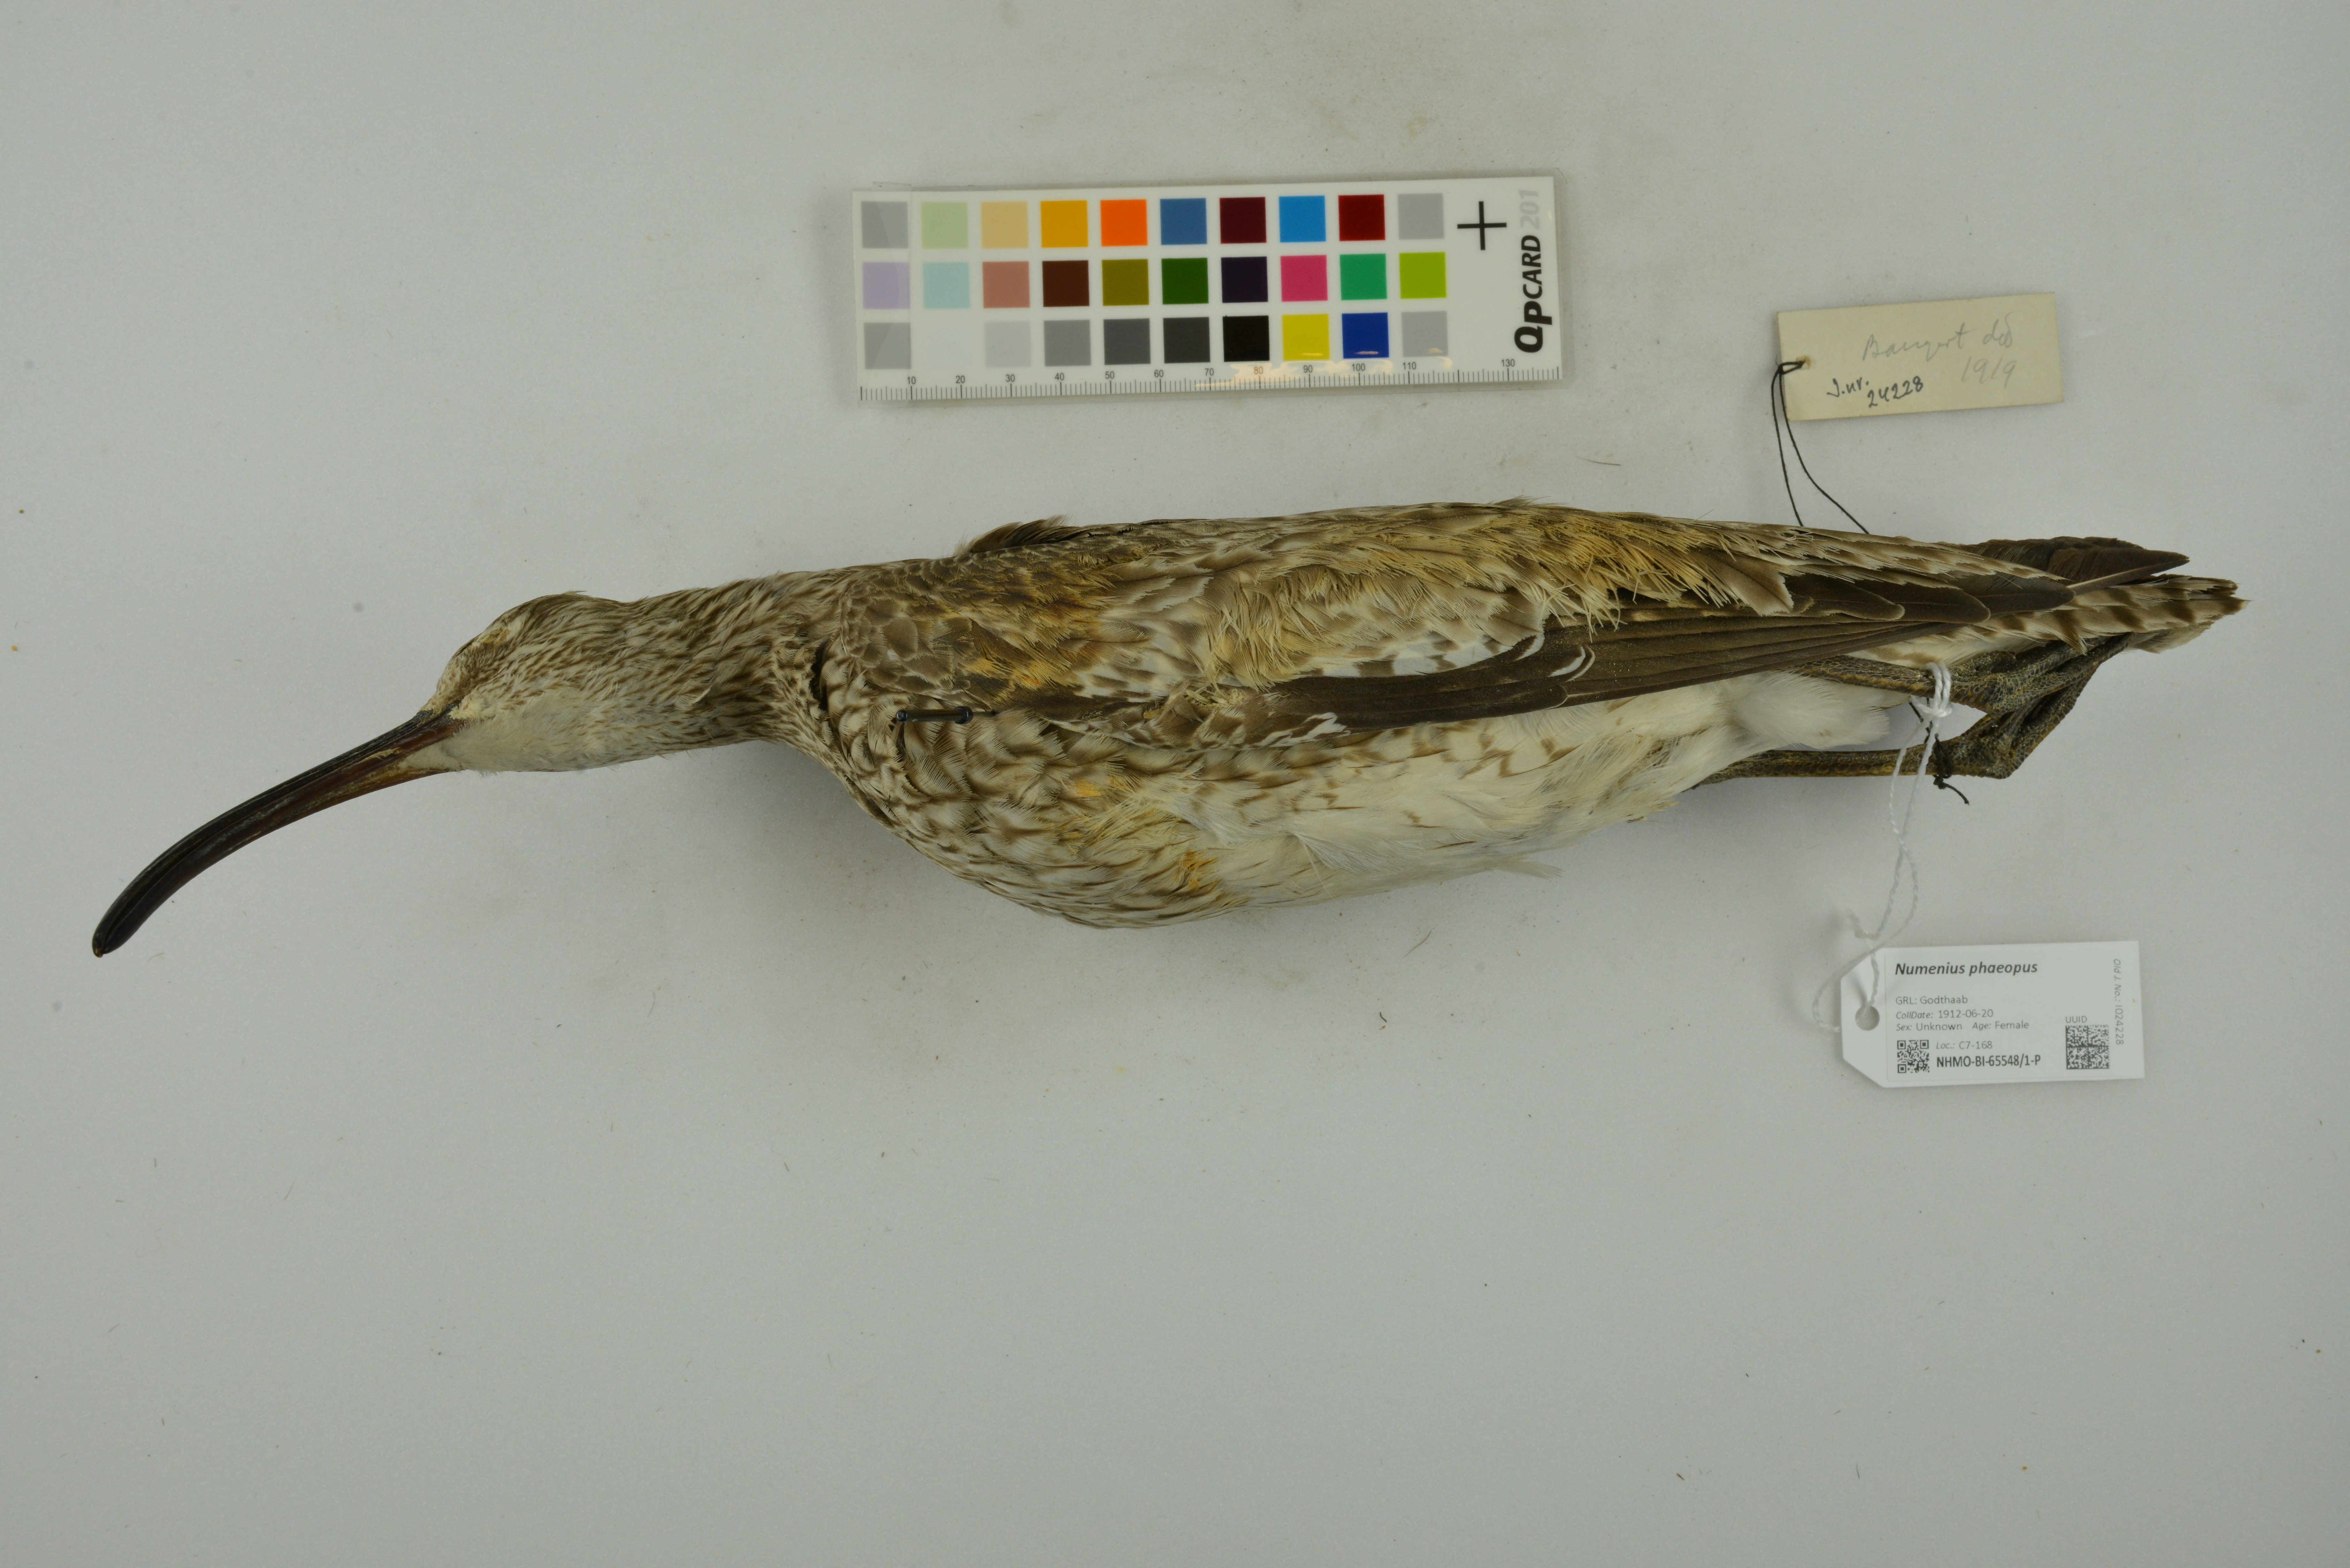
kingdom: Animalia
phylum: Chordata
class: Aves
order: Charadriiformes
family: Scolopacidae
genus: Numenius
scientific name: Numenius phaeopus
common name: Whimbrel
